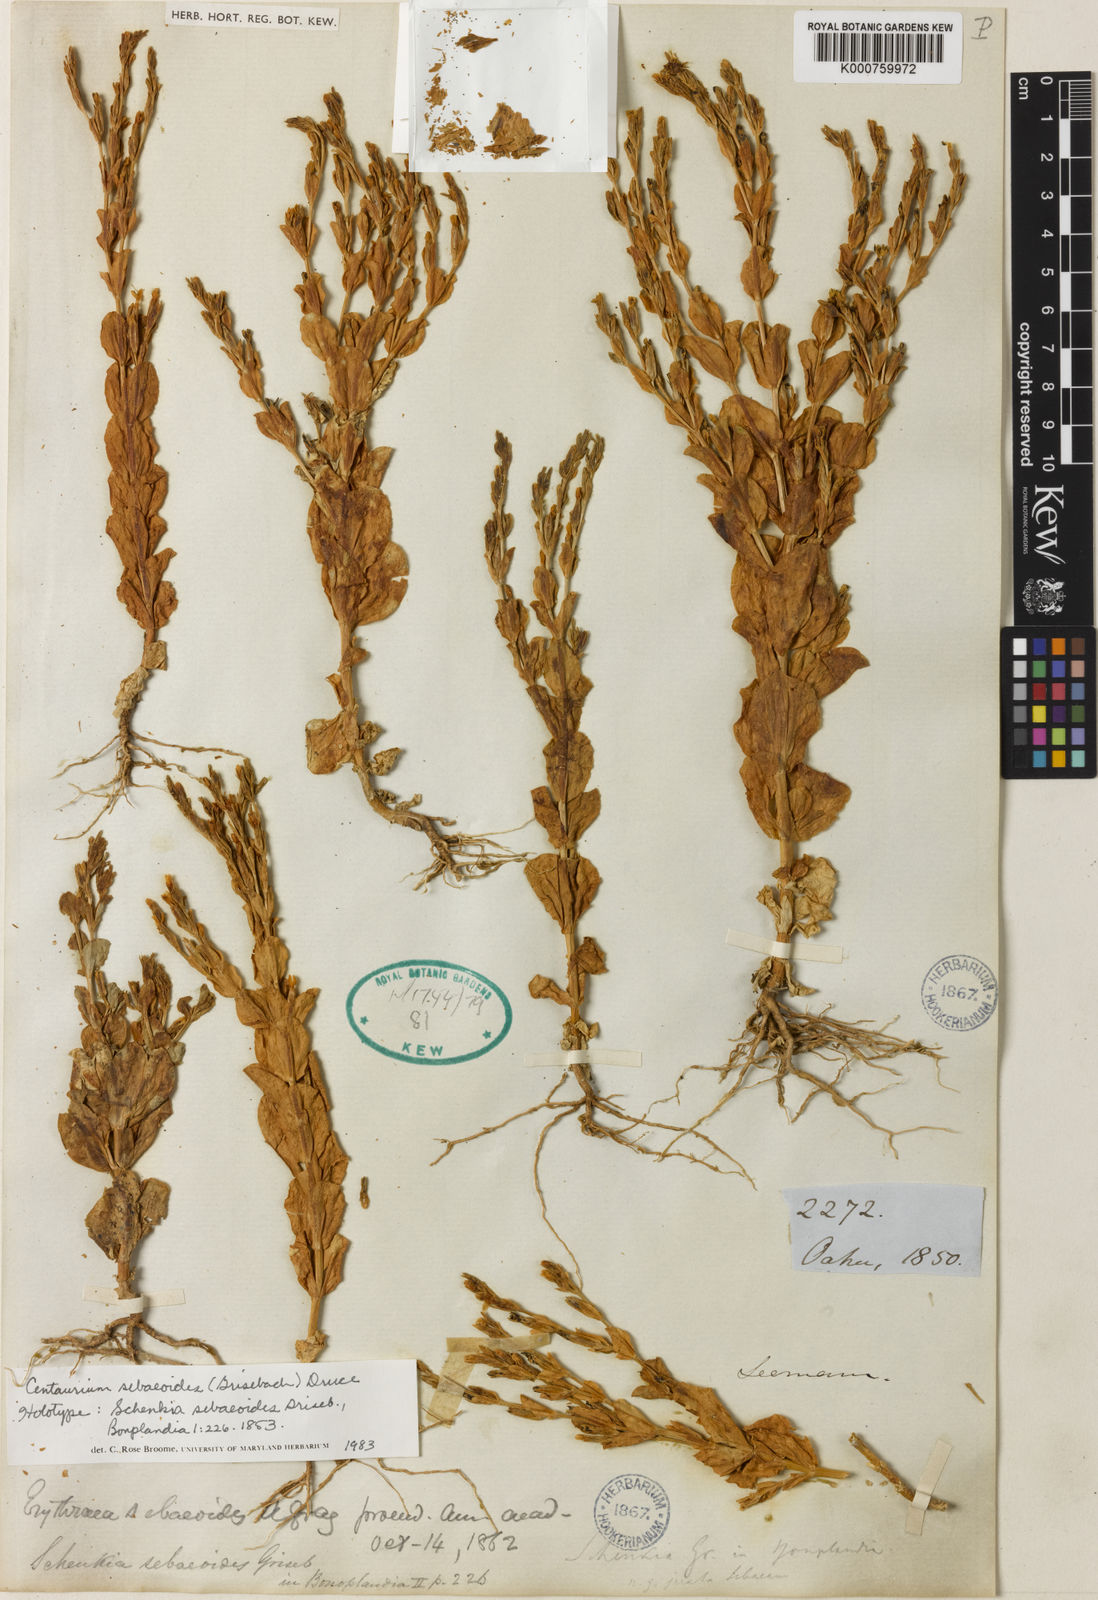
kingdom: Plantae
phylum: Tracheophyta
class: Magnoliopsida
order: Gentianales
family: Gentianaceae
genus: Schenkia
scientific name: Schenkia sebaeoides
